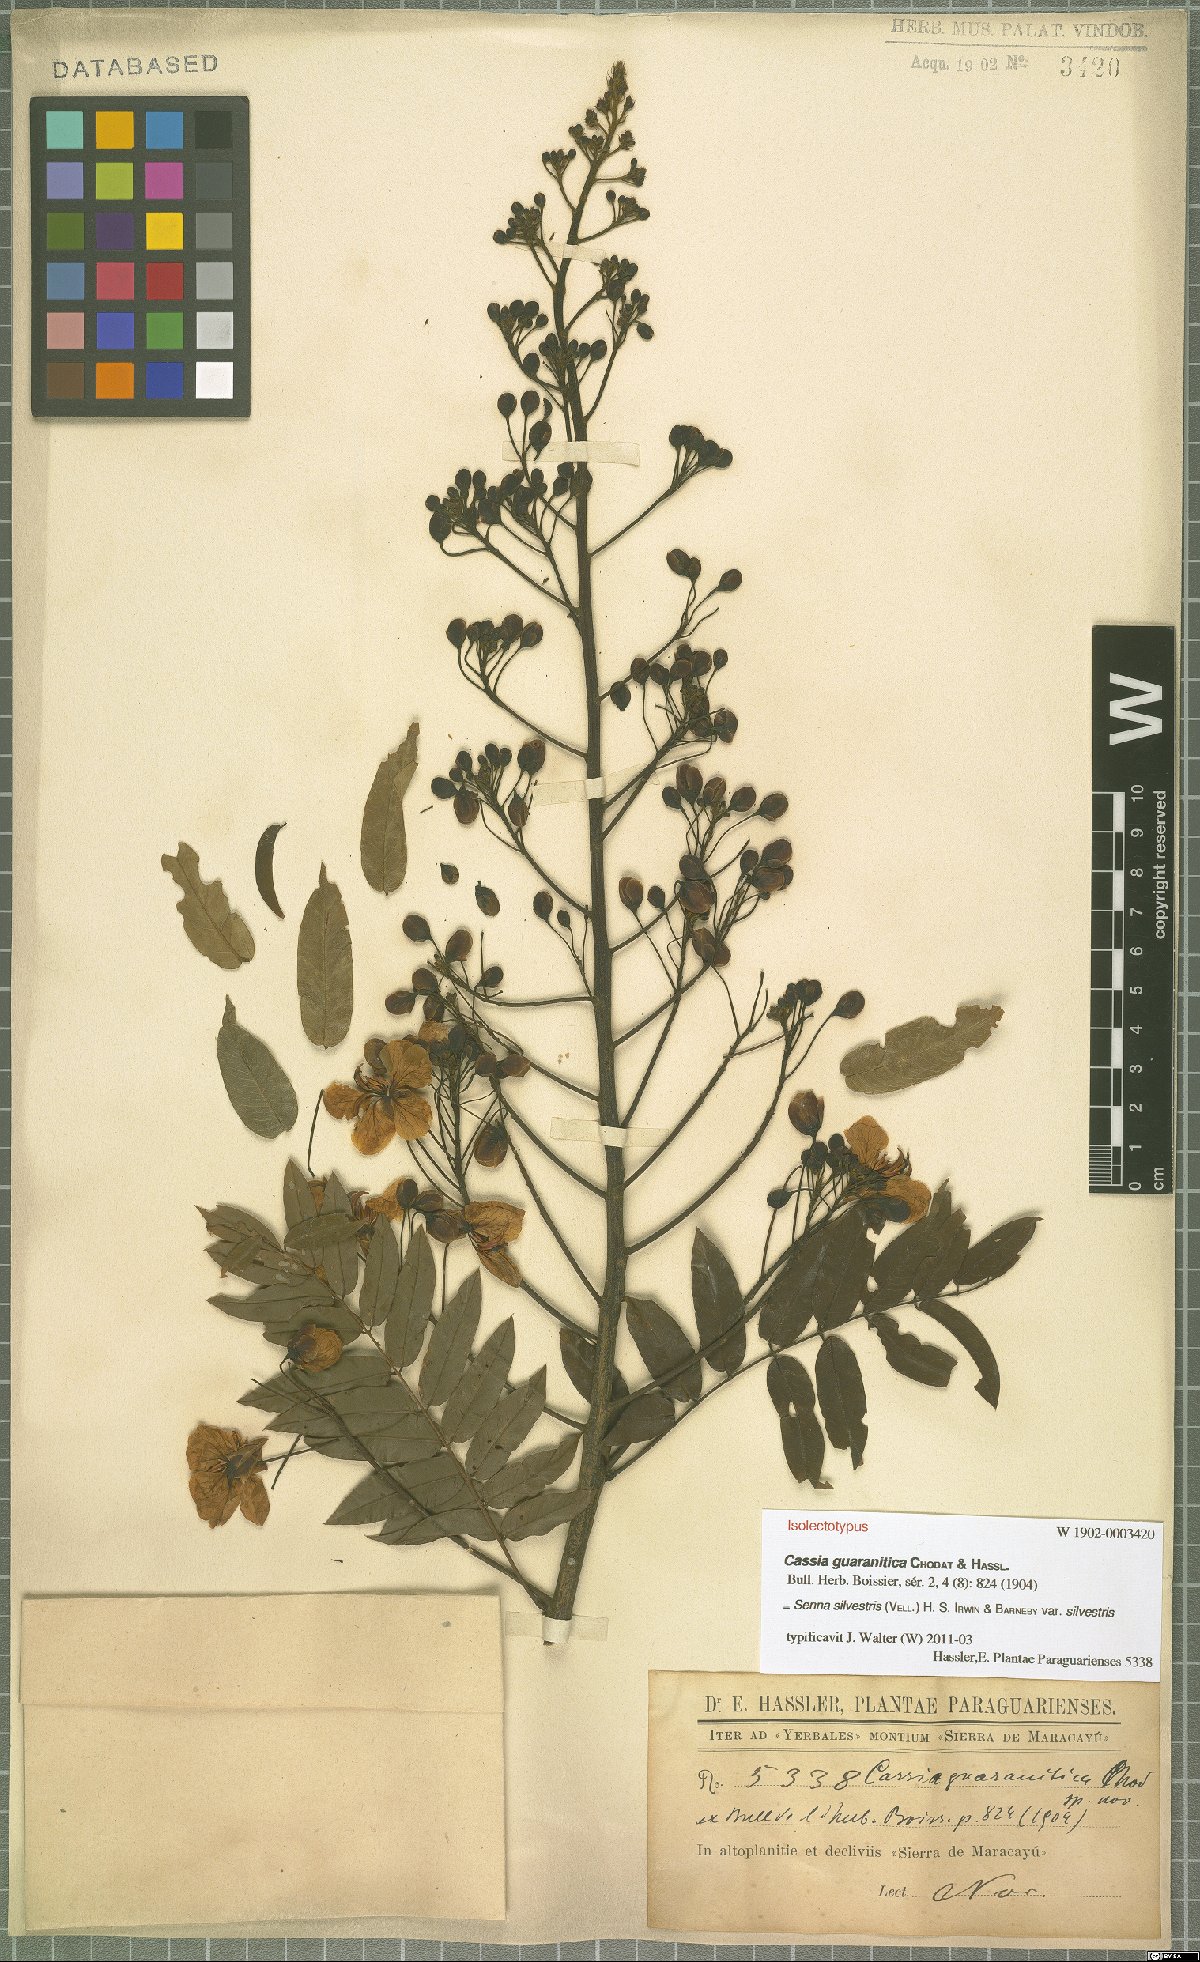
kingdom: Plantae
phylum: Tracheophyta
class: Magnoliopsida
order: Fabales
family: Fabaceae
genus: Senna
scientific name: Senna silvestris
